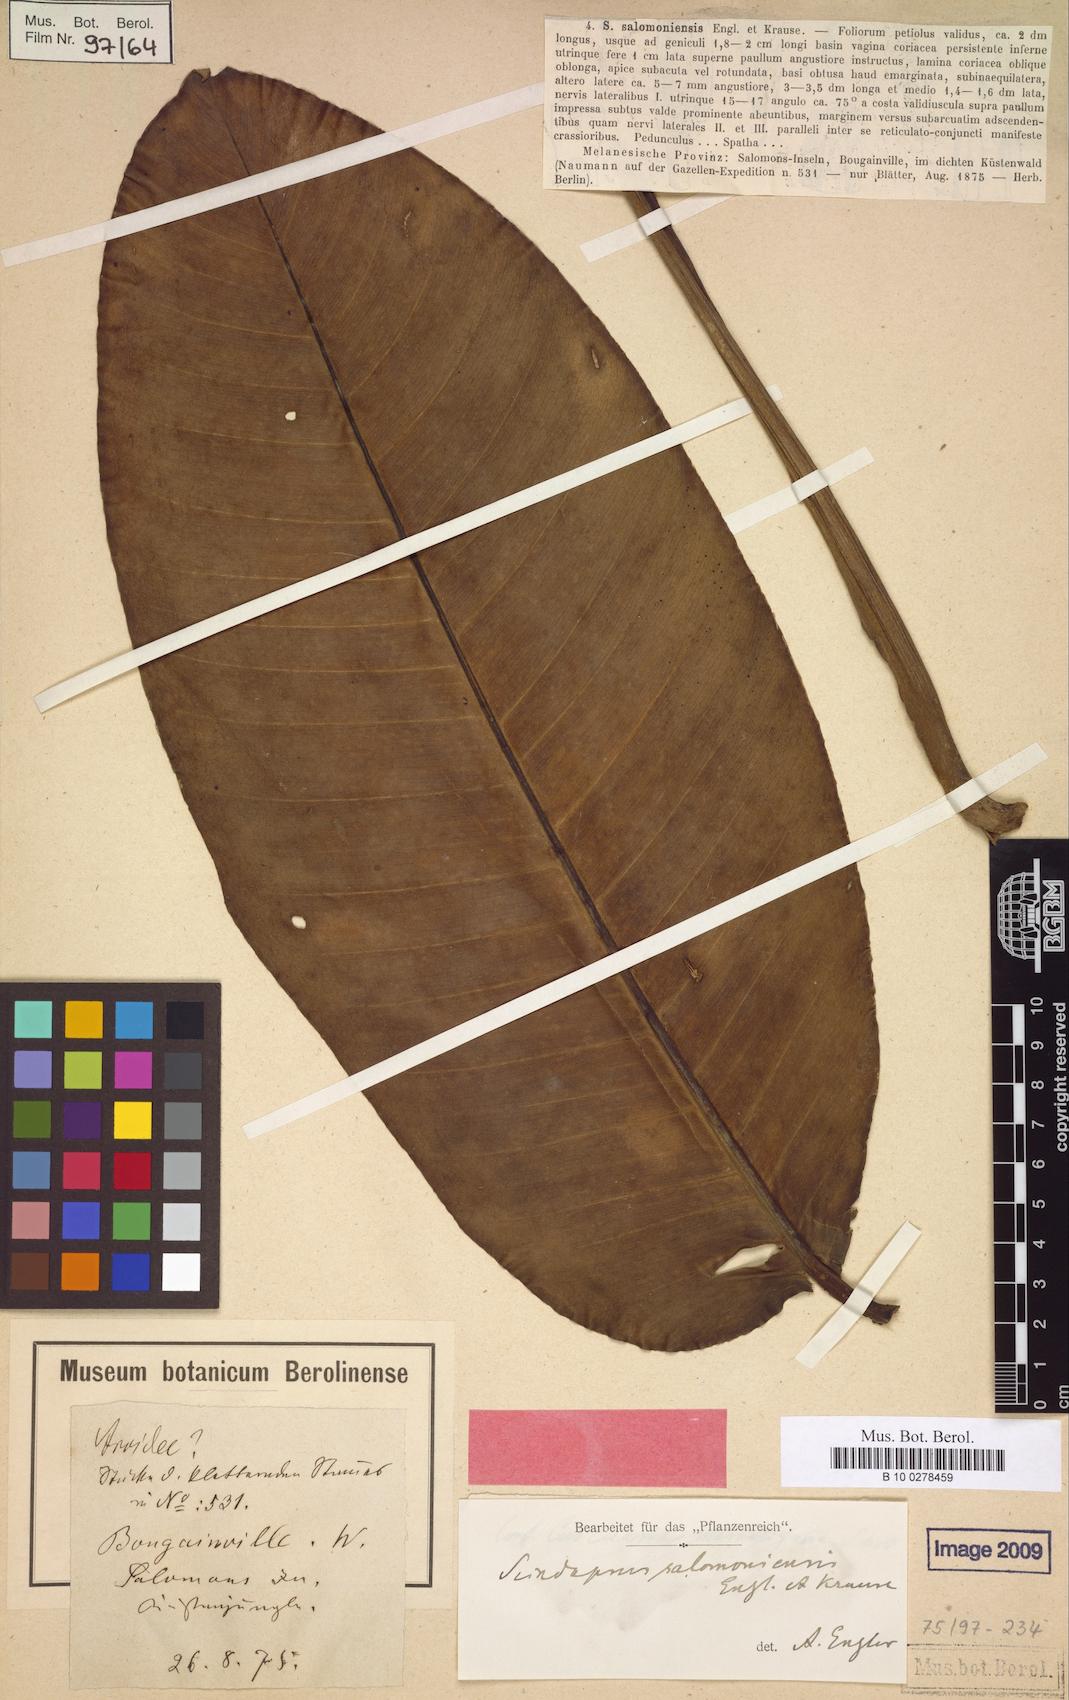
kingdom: Plantae
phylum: Tracheophyta
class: Liliopsida
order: Alismatales
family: Araceae
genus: Scindapsus
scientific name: Scindapsus salomoniensis
